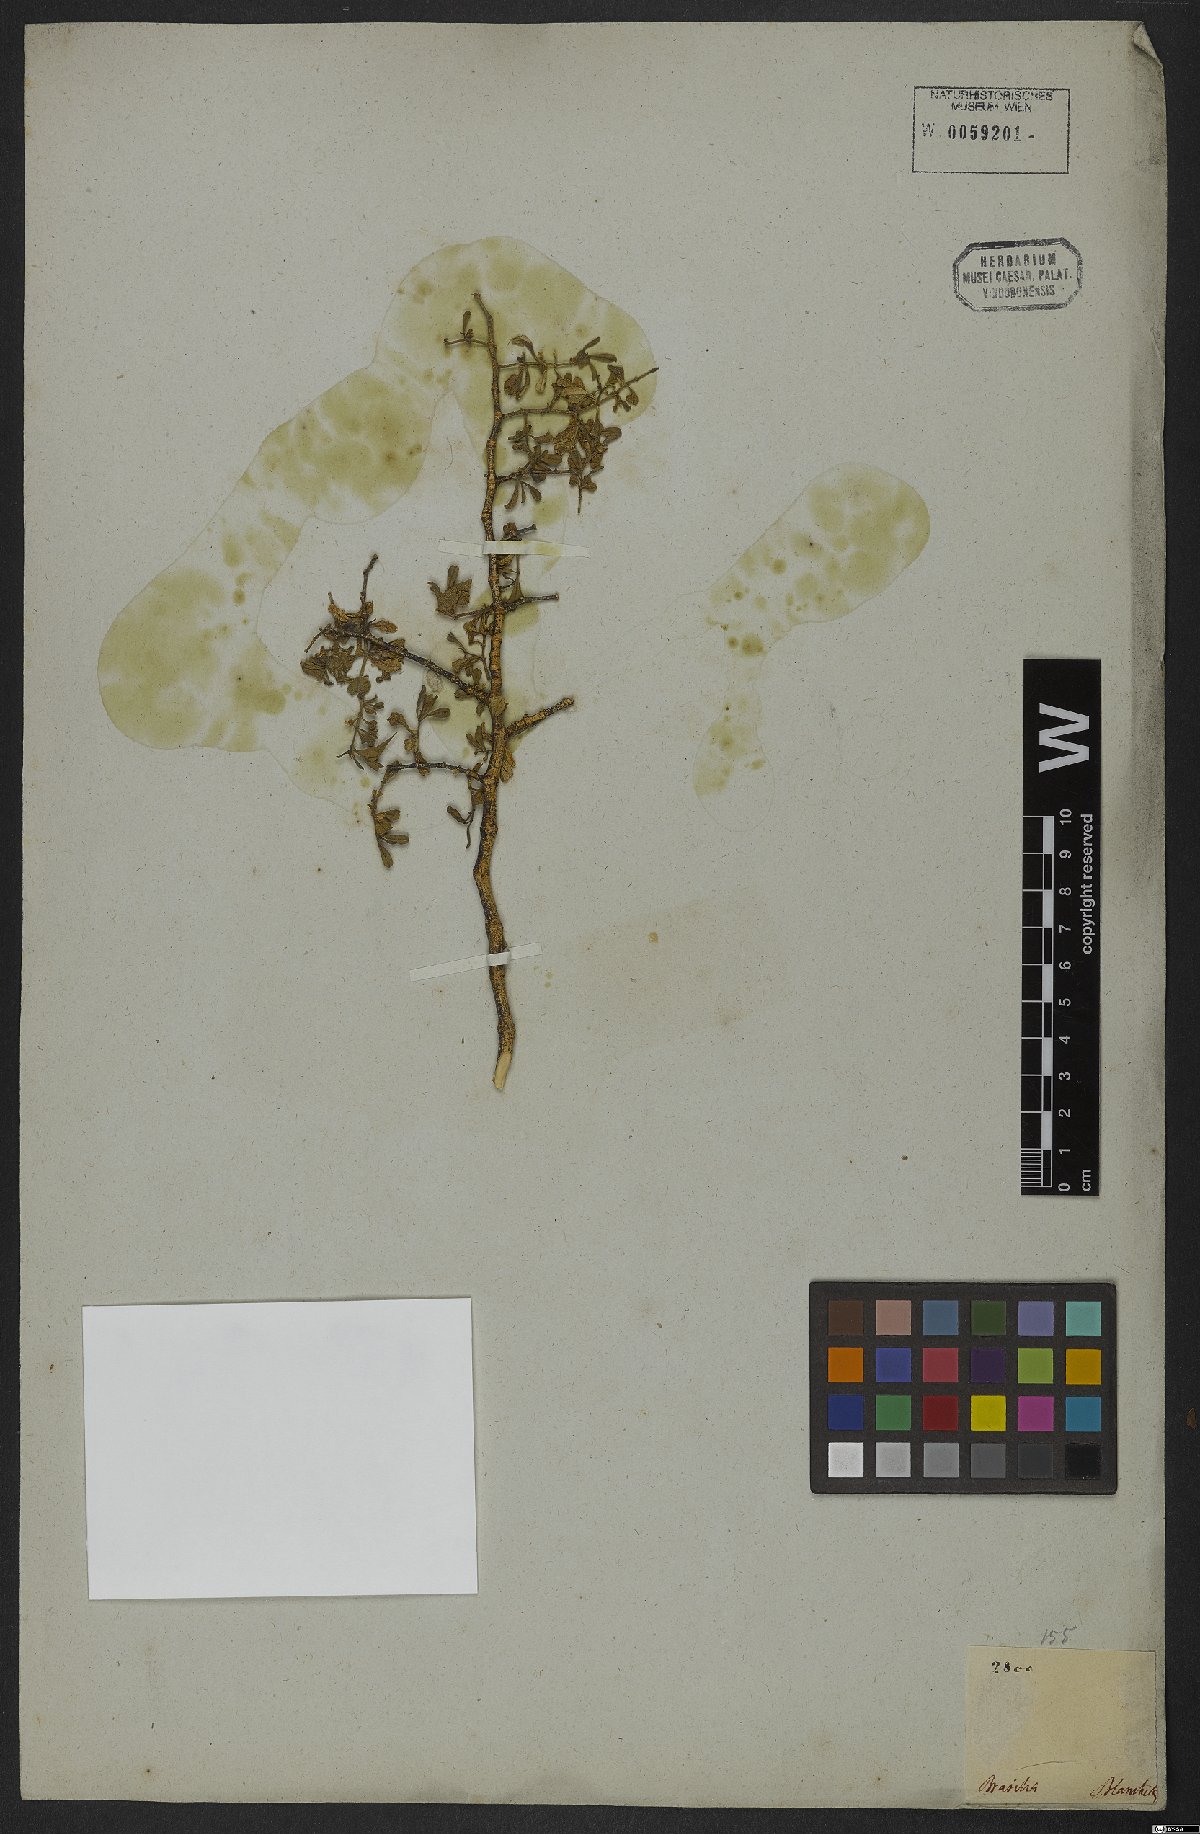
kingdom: Plantae
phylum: Tracheophyta
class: Magnoliopsida
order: Sapindales
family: Rutaceae
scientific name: Rutaceae
